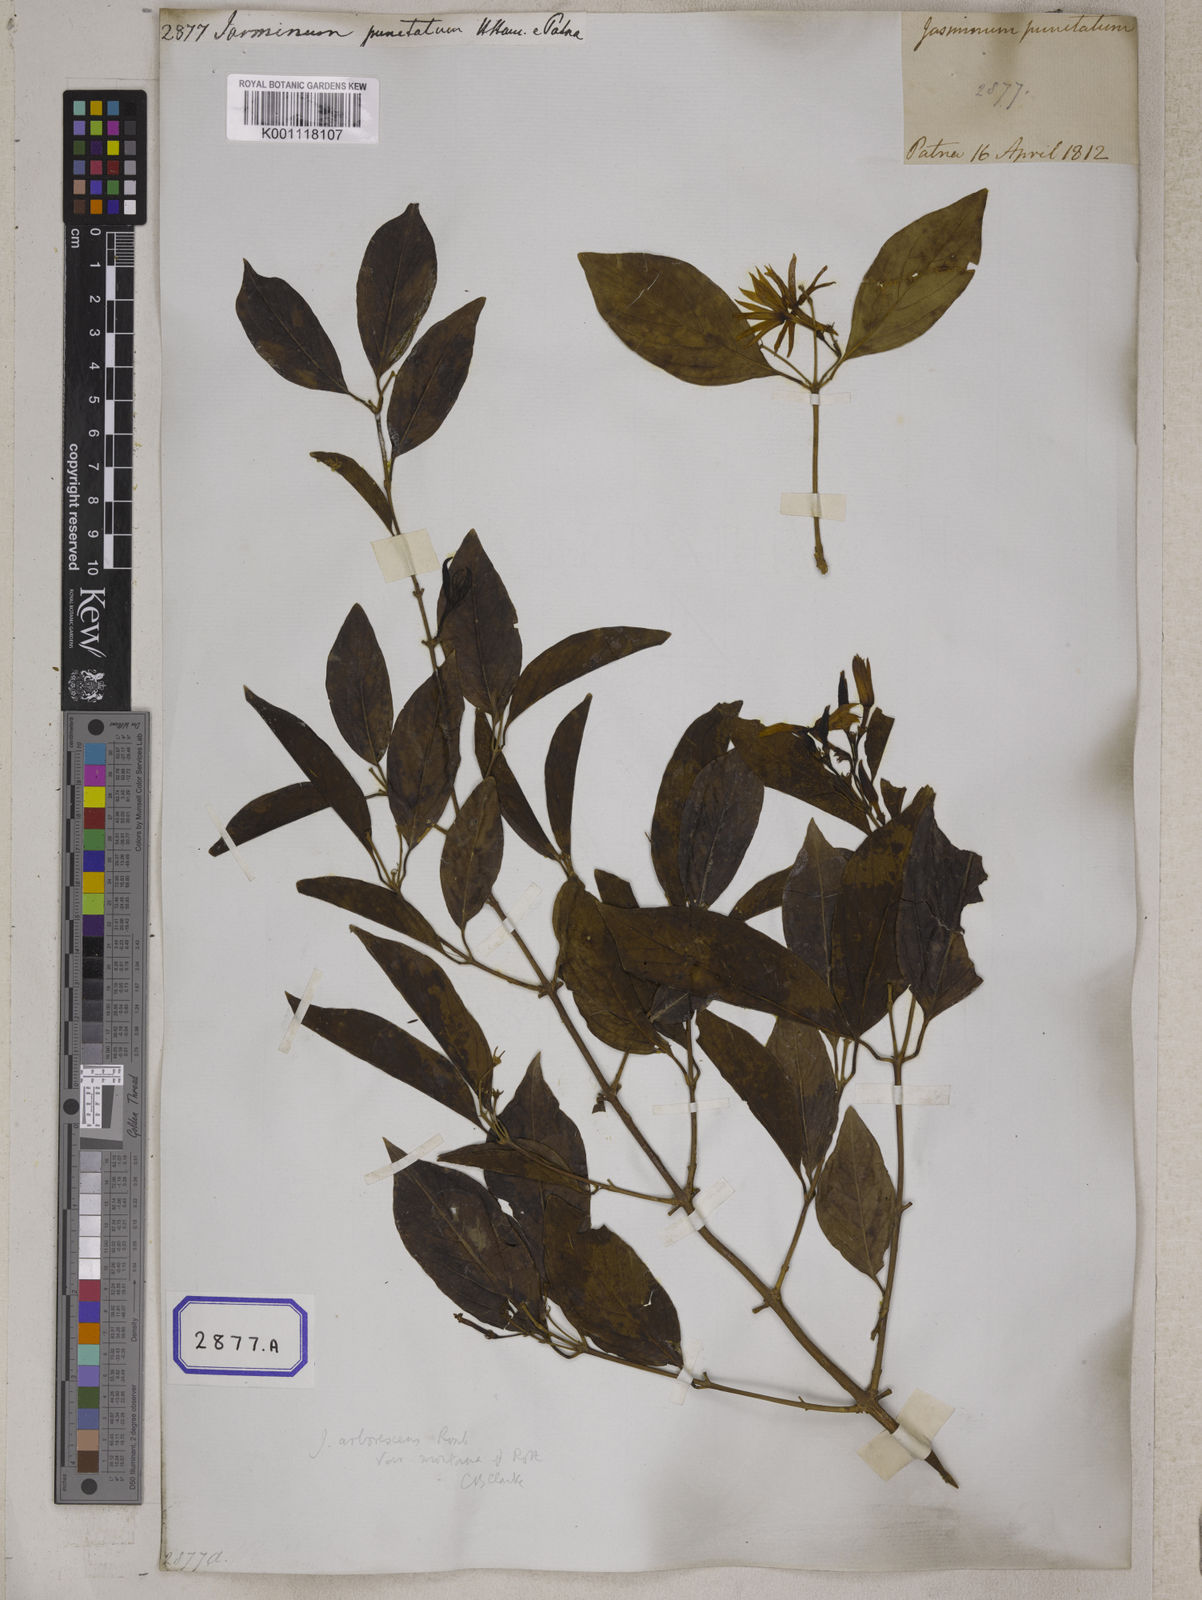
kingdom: Plantae
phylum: Tracheophyta
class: Magnoliopsida
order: Lamiales
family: Oleaceae
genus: Jasminum
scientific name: Jasminum
